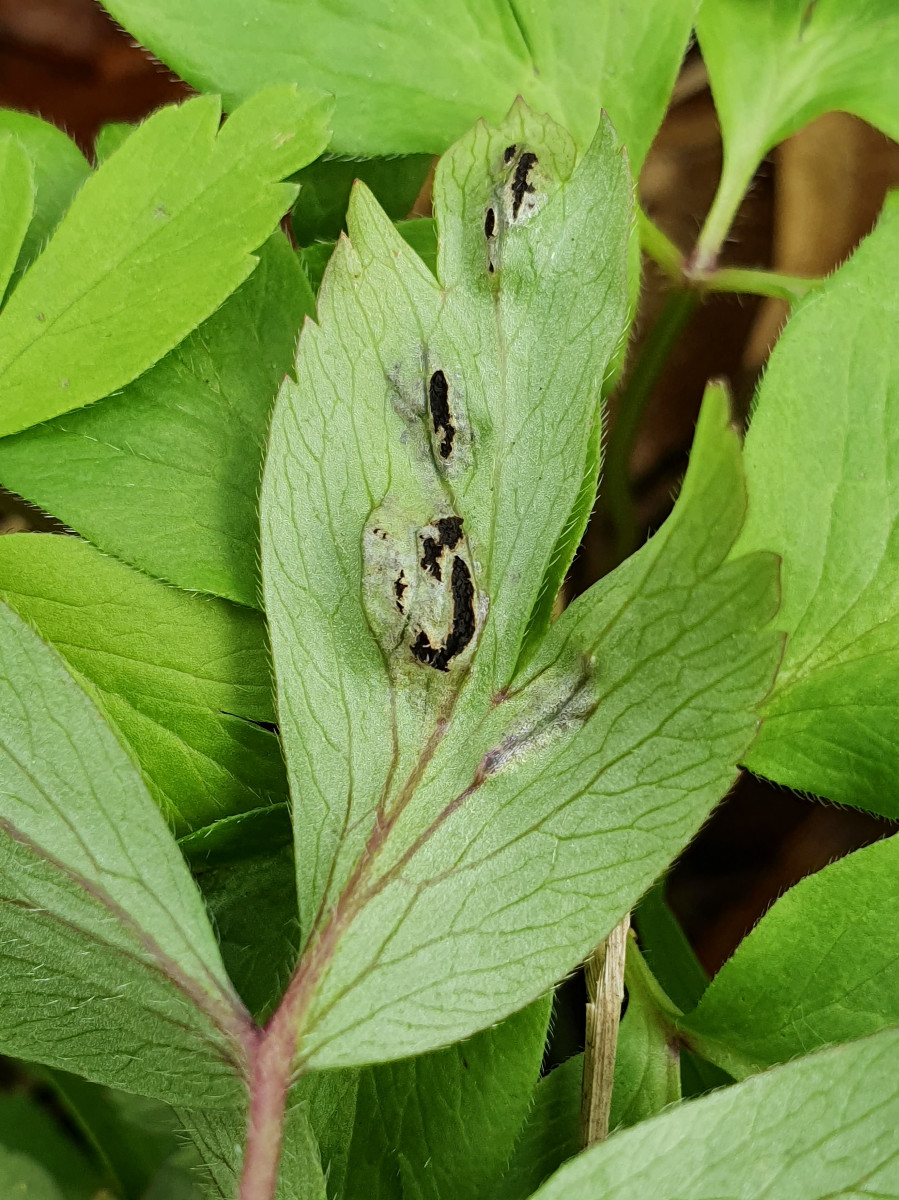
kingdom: Fungi
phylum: Basidiomycota
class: Ustilaginomycetes
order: Urocystidales
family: Urocystidaceae
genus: Urocystis
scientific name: Urocystis anemones
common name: anemone-brand
